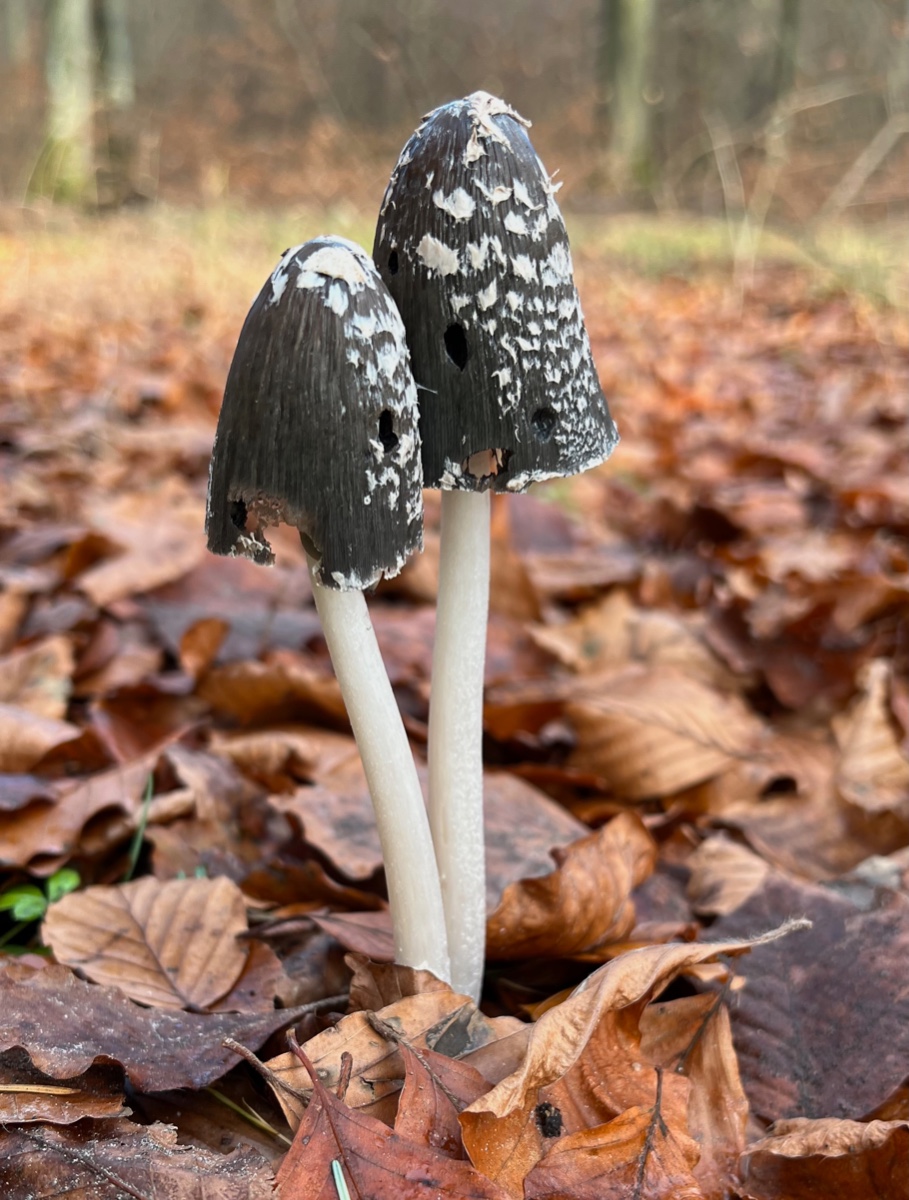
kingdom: Fungi
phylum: Basidiomycota
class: Agaricomycetes
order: Agaricales
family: Psathyrellaceae
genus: Coprinopsis
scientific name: Coprinopsis picacea
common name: skade-blækhat
